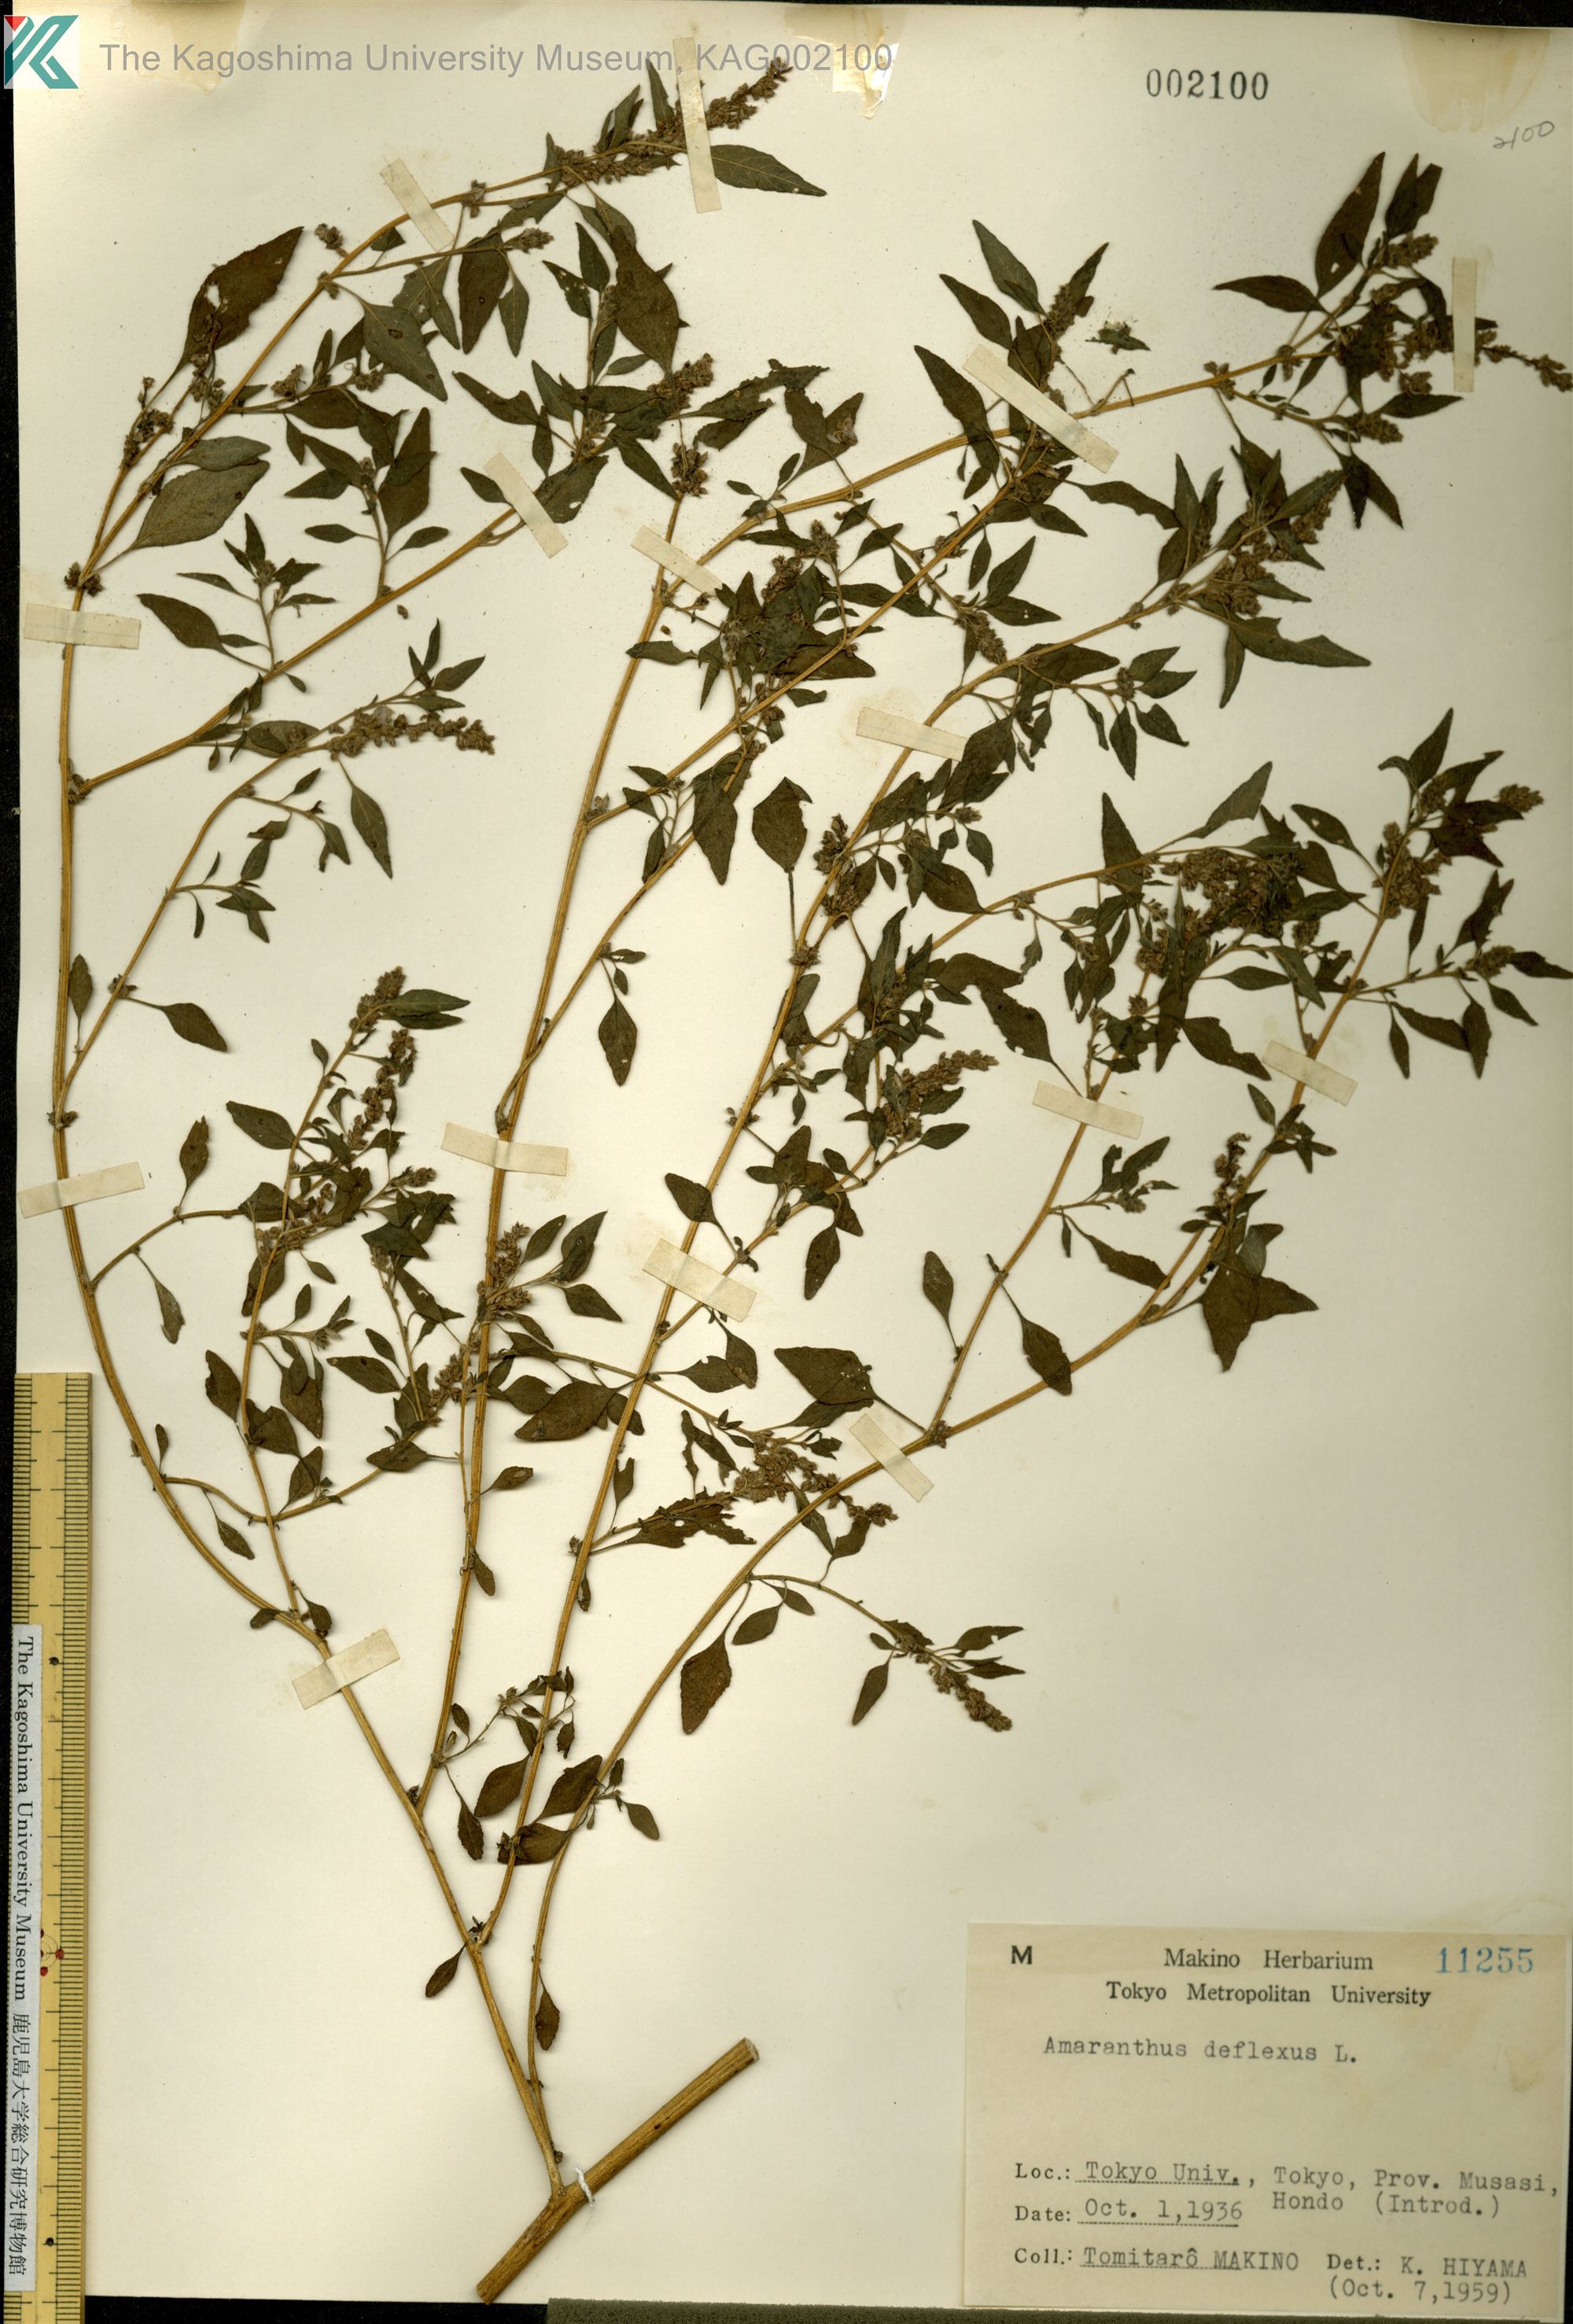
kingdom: Plantae
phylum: Tracheophyta
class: Magnoliopsida
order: Caryophyllales
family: Amaranthaceae
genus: Amaranthus
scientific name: Amaranthus deflexus
